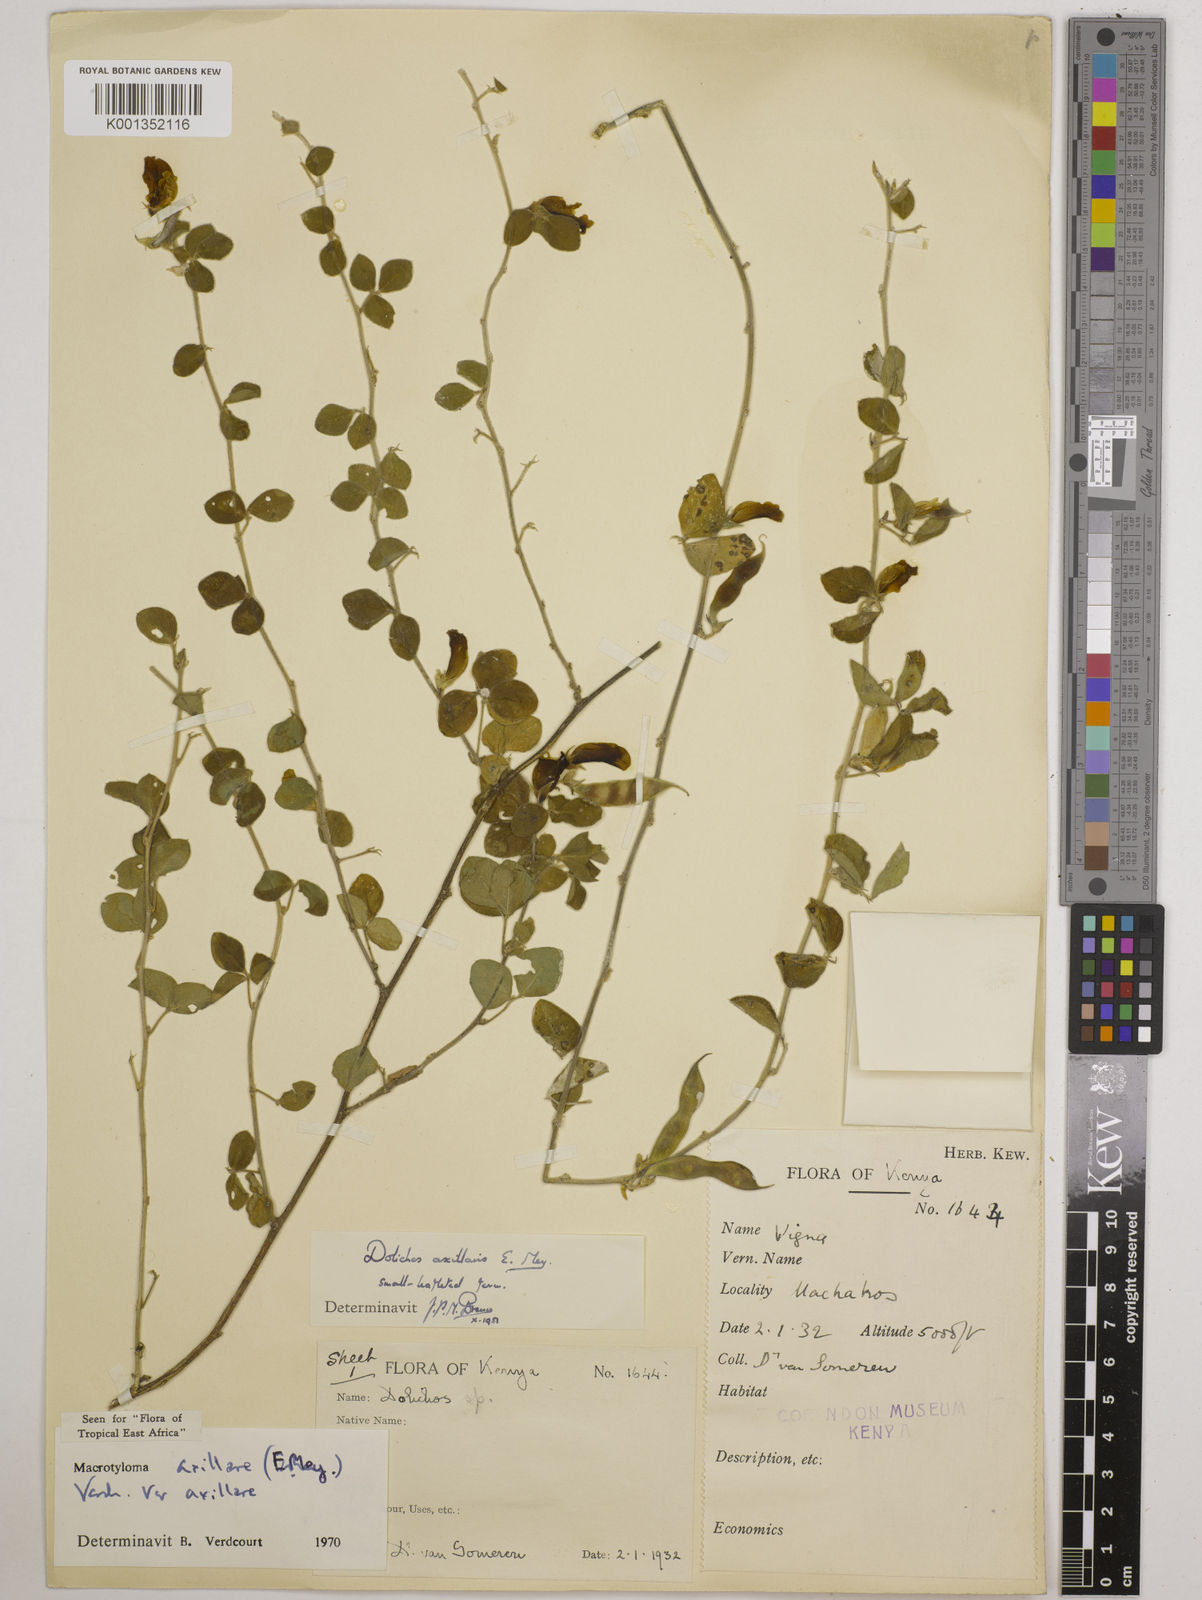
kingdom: Plantae
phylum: Tracheophyta
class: Magnoliopsida
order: Fabales
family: Fabaceae
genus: Macrotyloma
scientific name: Macrotyloma axillare
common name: Perennial horsegram
